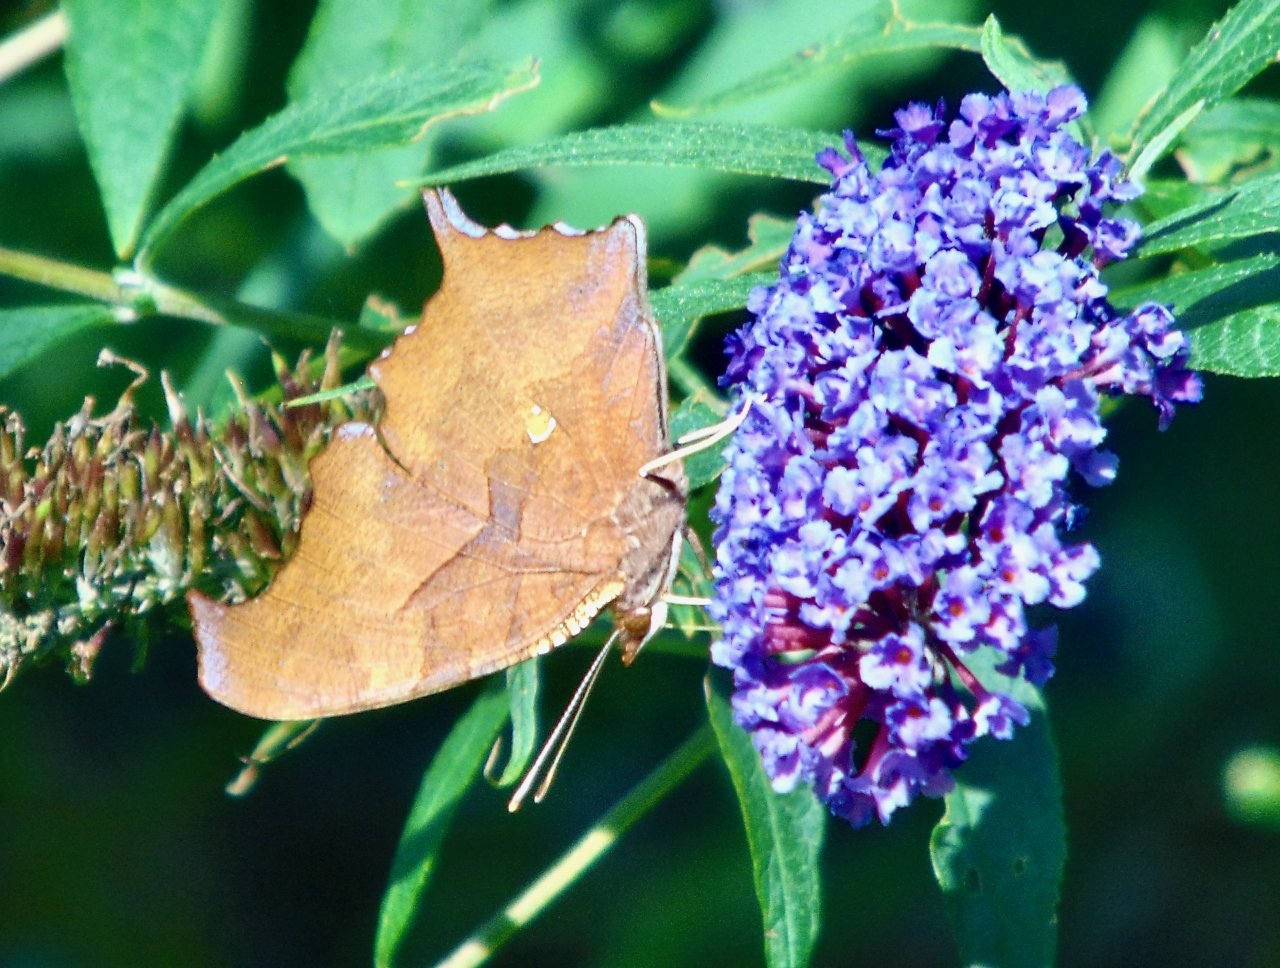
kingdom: Animalia
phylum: Arthropoda
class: Insecta
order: Lepidoptera
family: Nymphalidae
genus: Polygonia
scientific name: Polygonia interrogationis
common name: Question Mark
